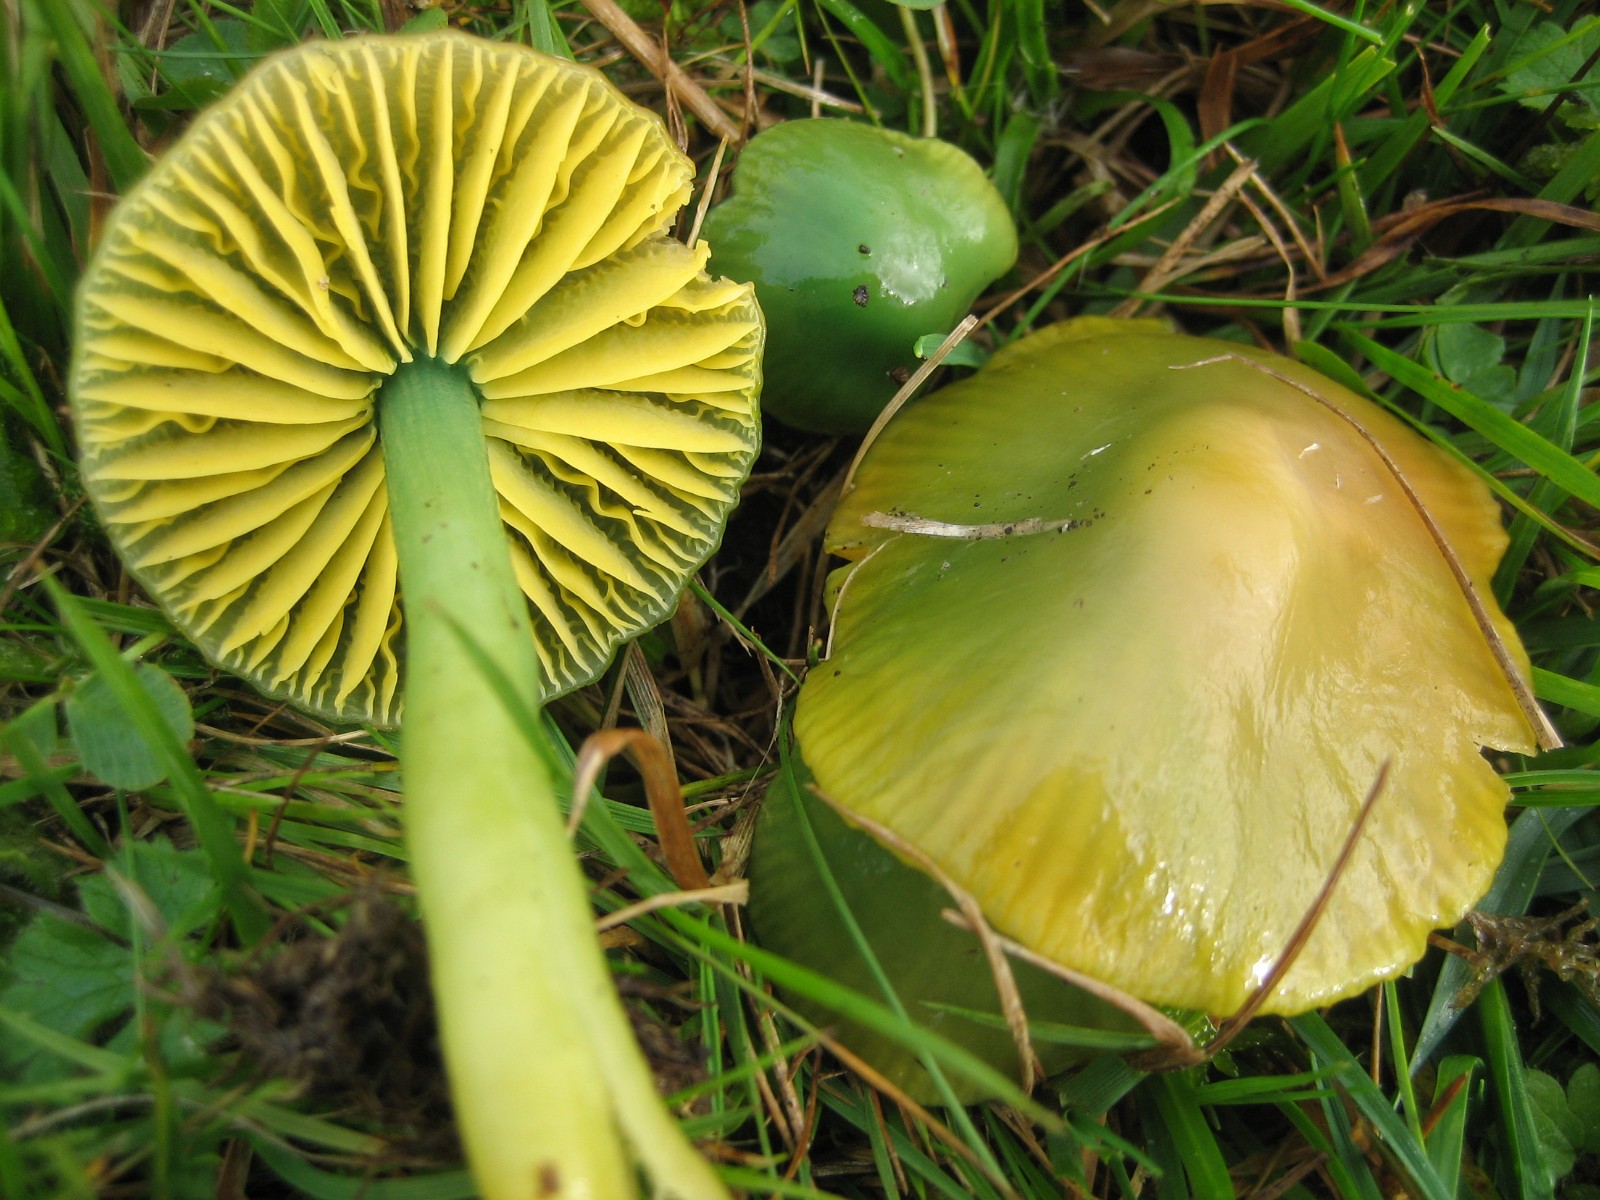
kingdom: Fungi
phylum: Basidiomycota
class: Agaricomycetes
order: Agaricales
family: Hygrophoraceae
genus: Gliophorus
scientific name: Gliophorus psittacinus
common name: papegøje-vokshat
